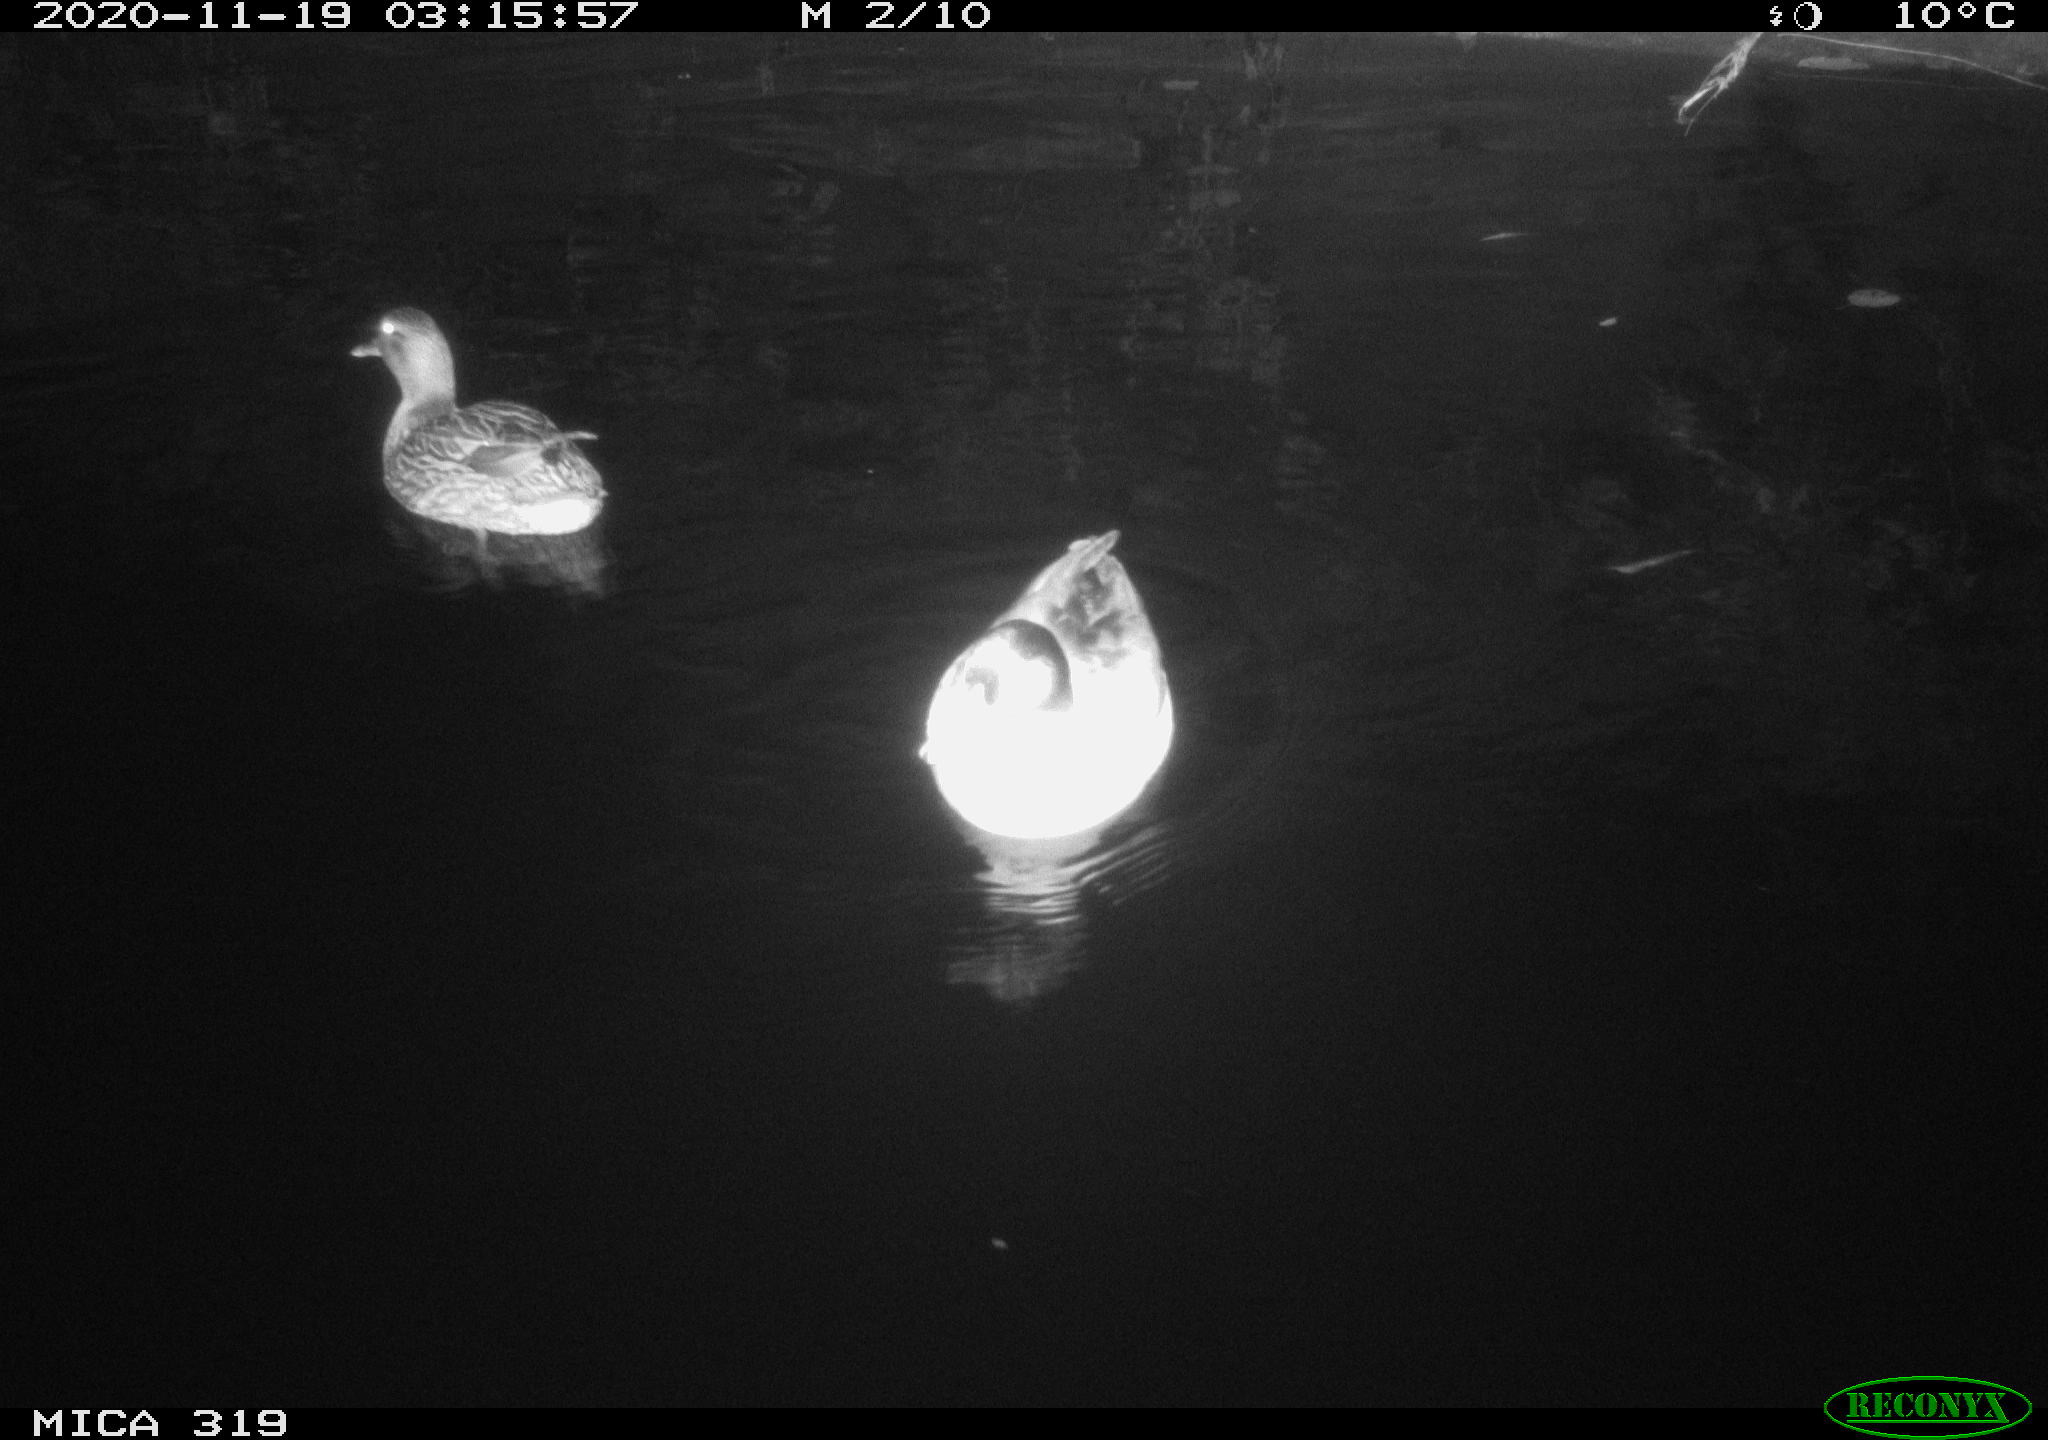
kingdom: Animalia
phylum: Chordata
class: Aves
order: Anseriformes
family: Anatidae
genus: Anas
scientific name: Anas platyrhynchos
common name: Mallard
